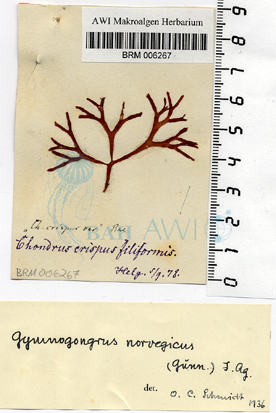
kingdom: Plantae
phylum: Rhodophyta
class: Florideophyceae
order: Gigartinales
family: Gigartinaceae
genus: Chondrus
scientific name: Chondrus crispus
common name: Carrageen
